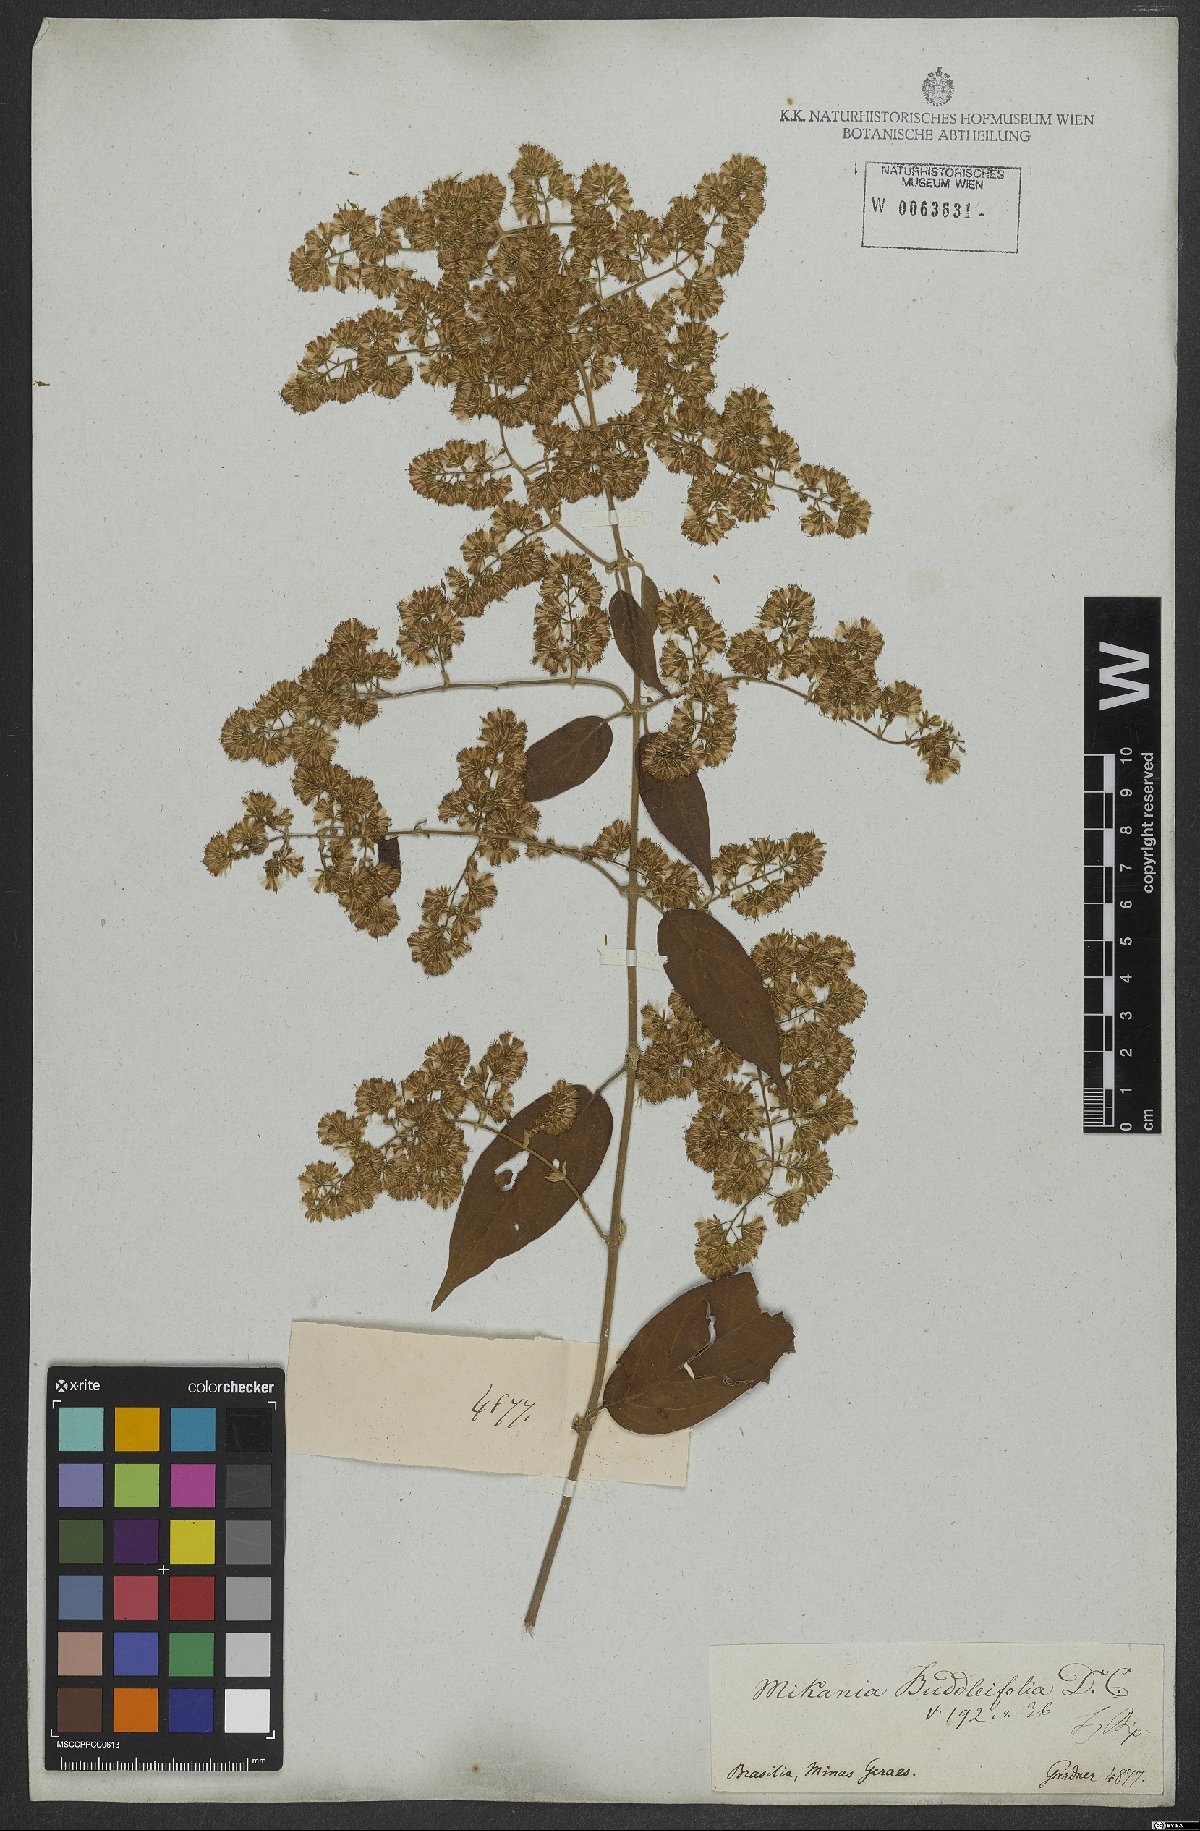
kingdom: Plantae
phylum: Tracheophyta
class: Magnoliopsida
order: Asterales
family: Asteraceae
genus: Mikania
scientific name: Mikania buddlejifolia
